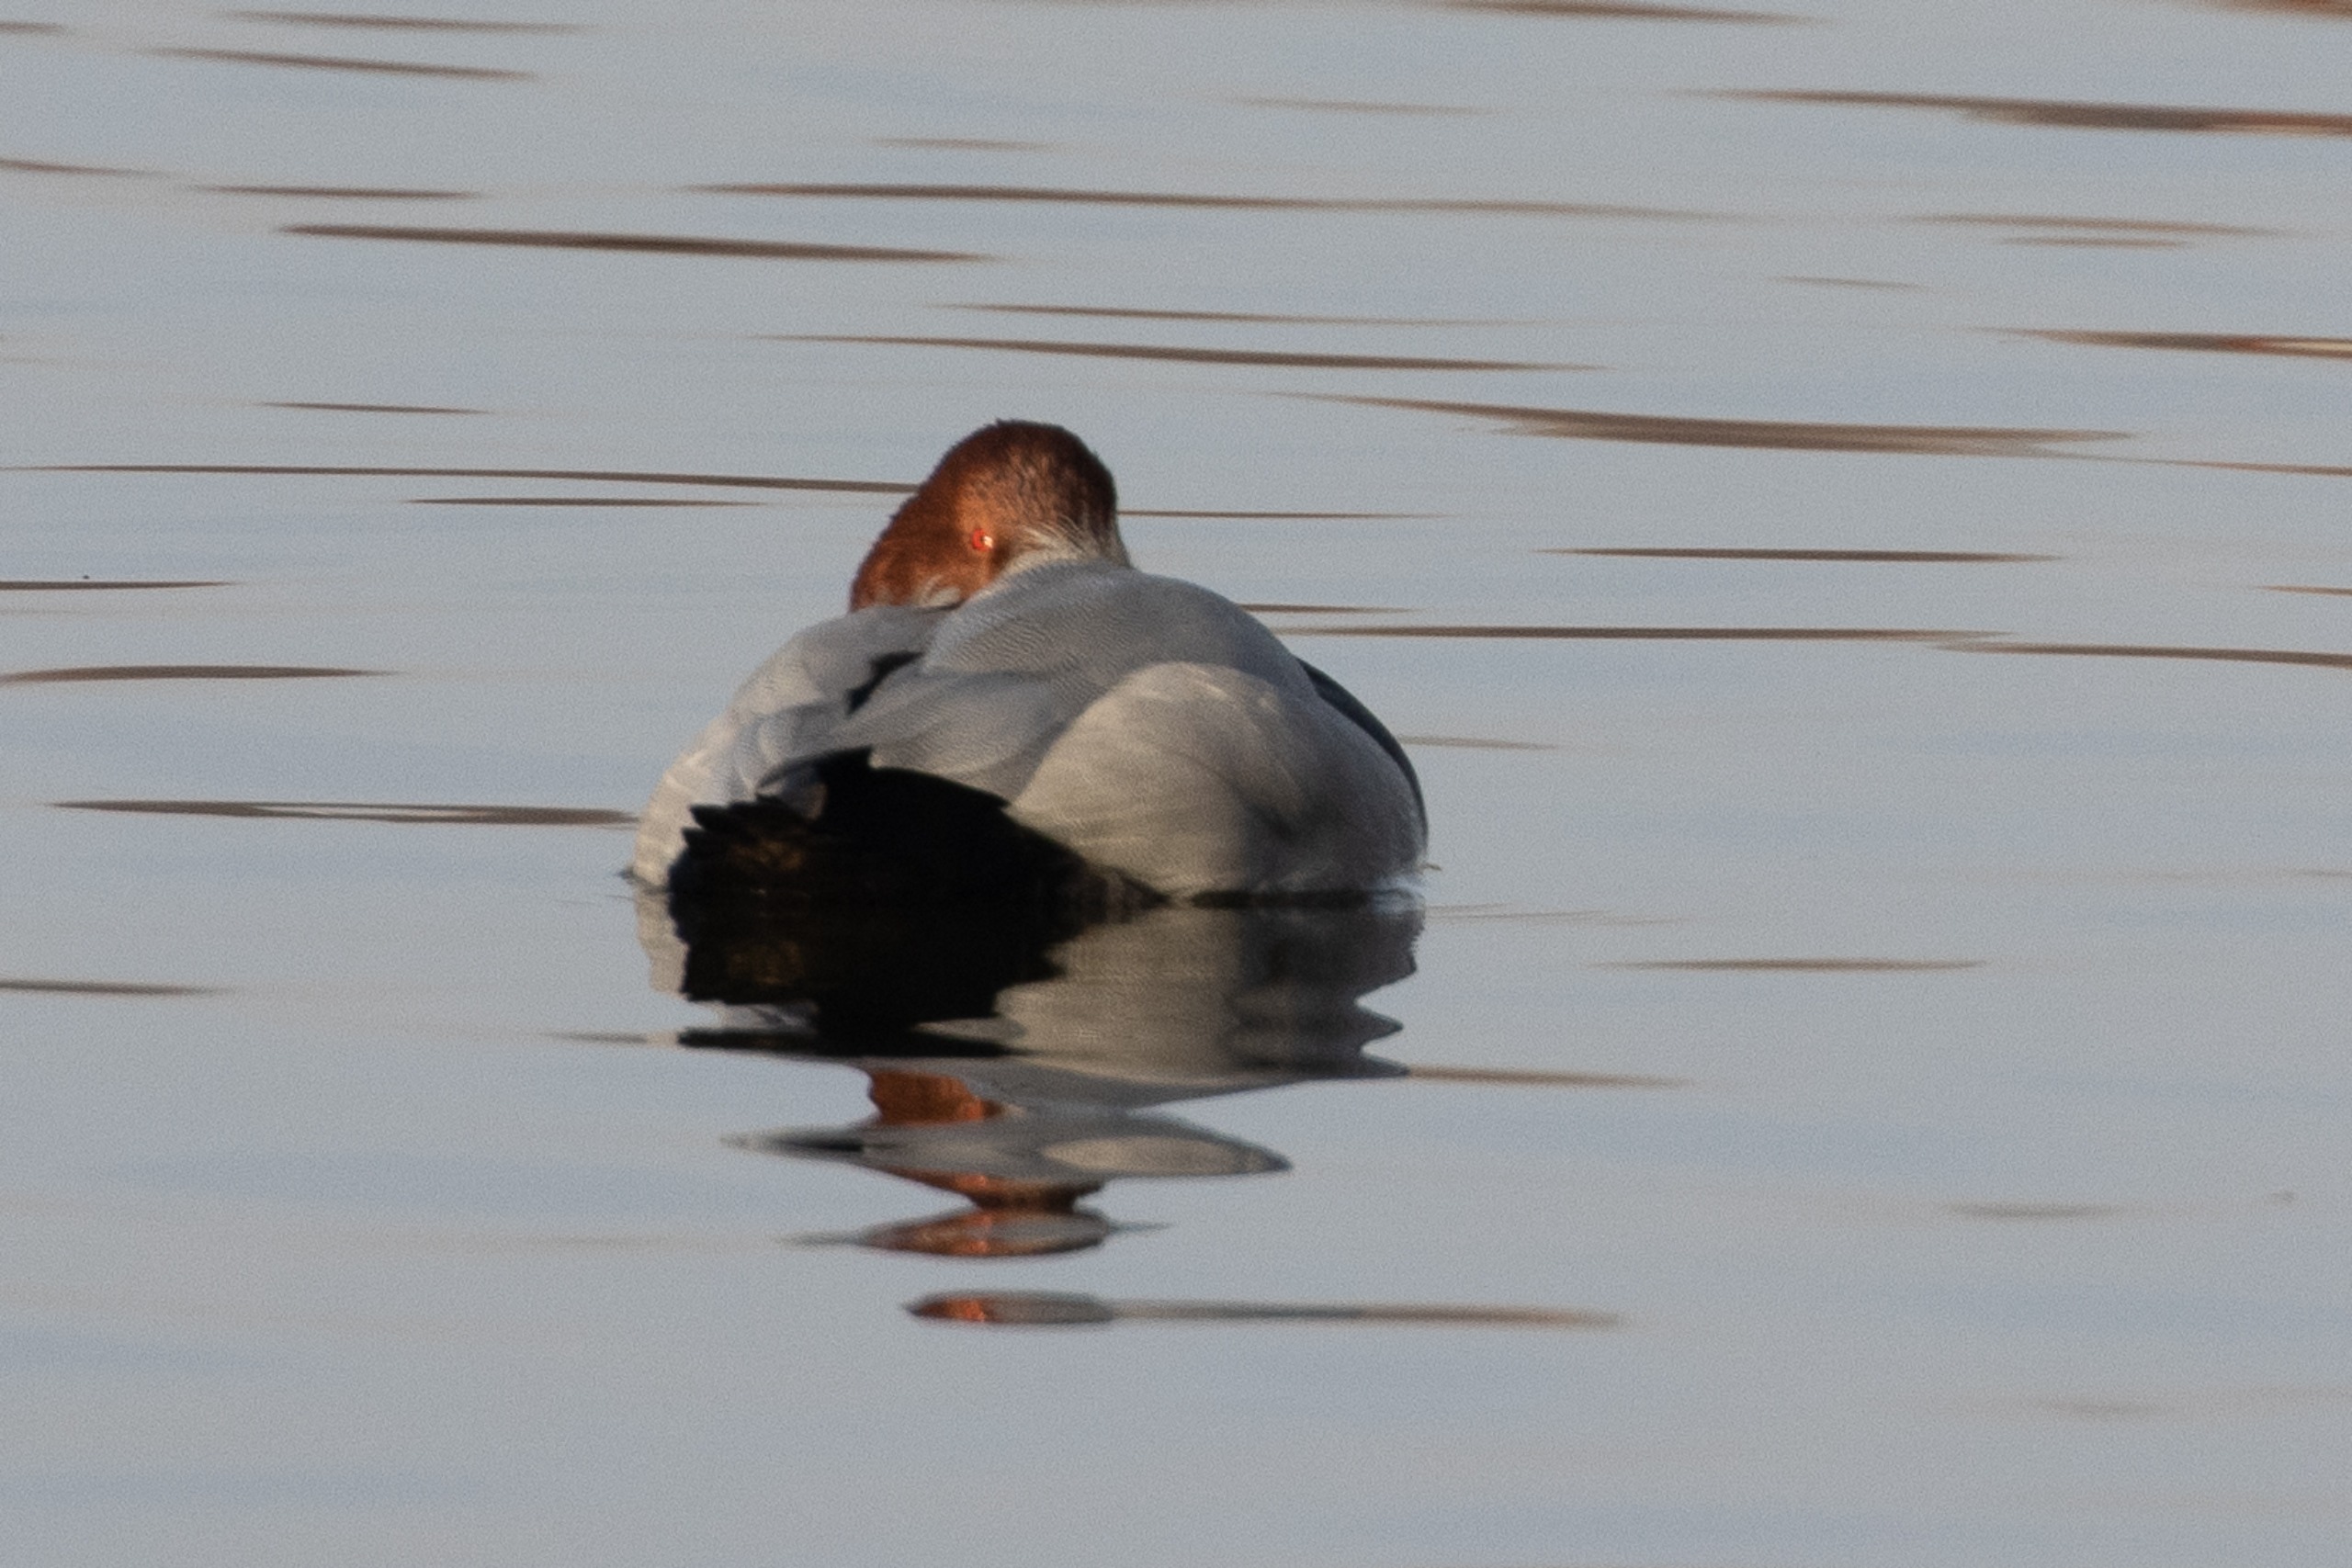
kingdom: Animalia
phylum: Chordata
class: Aves
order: Anseriformes
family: Anatidae
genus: Aythya
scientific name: Aythya ferina
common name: Taffeland
